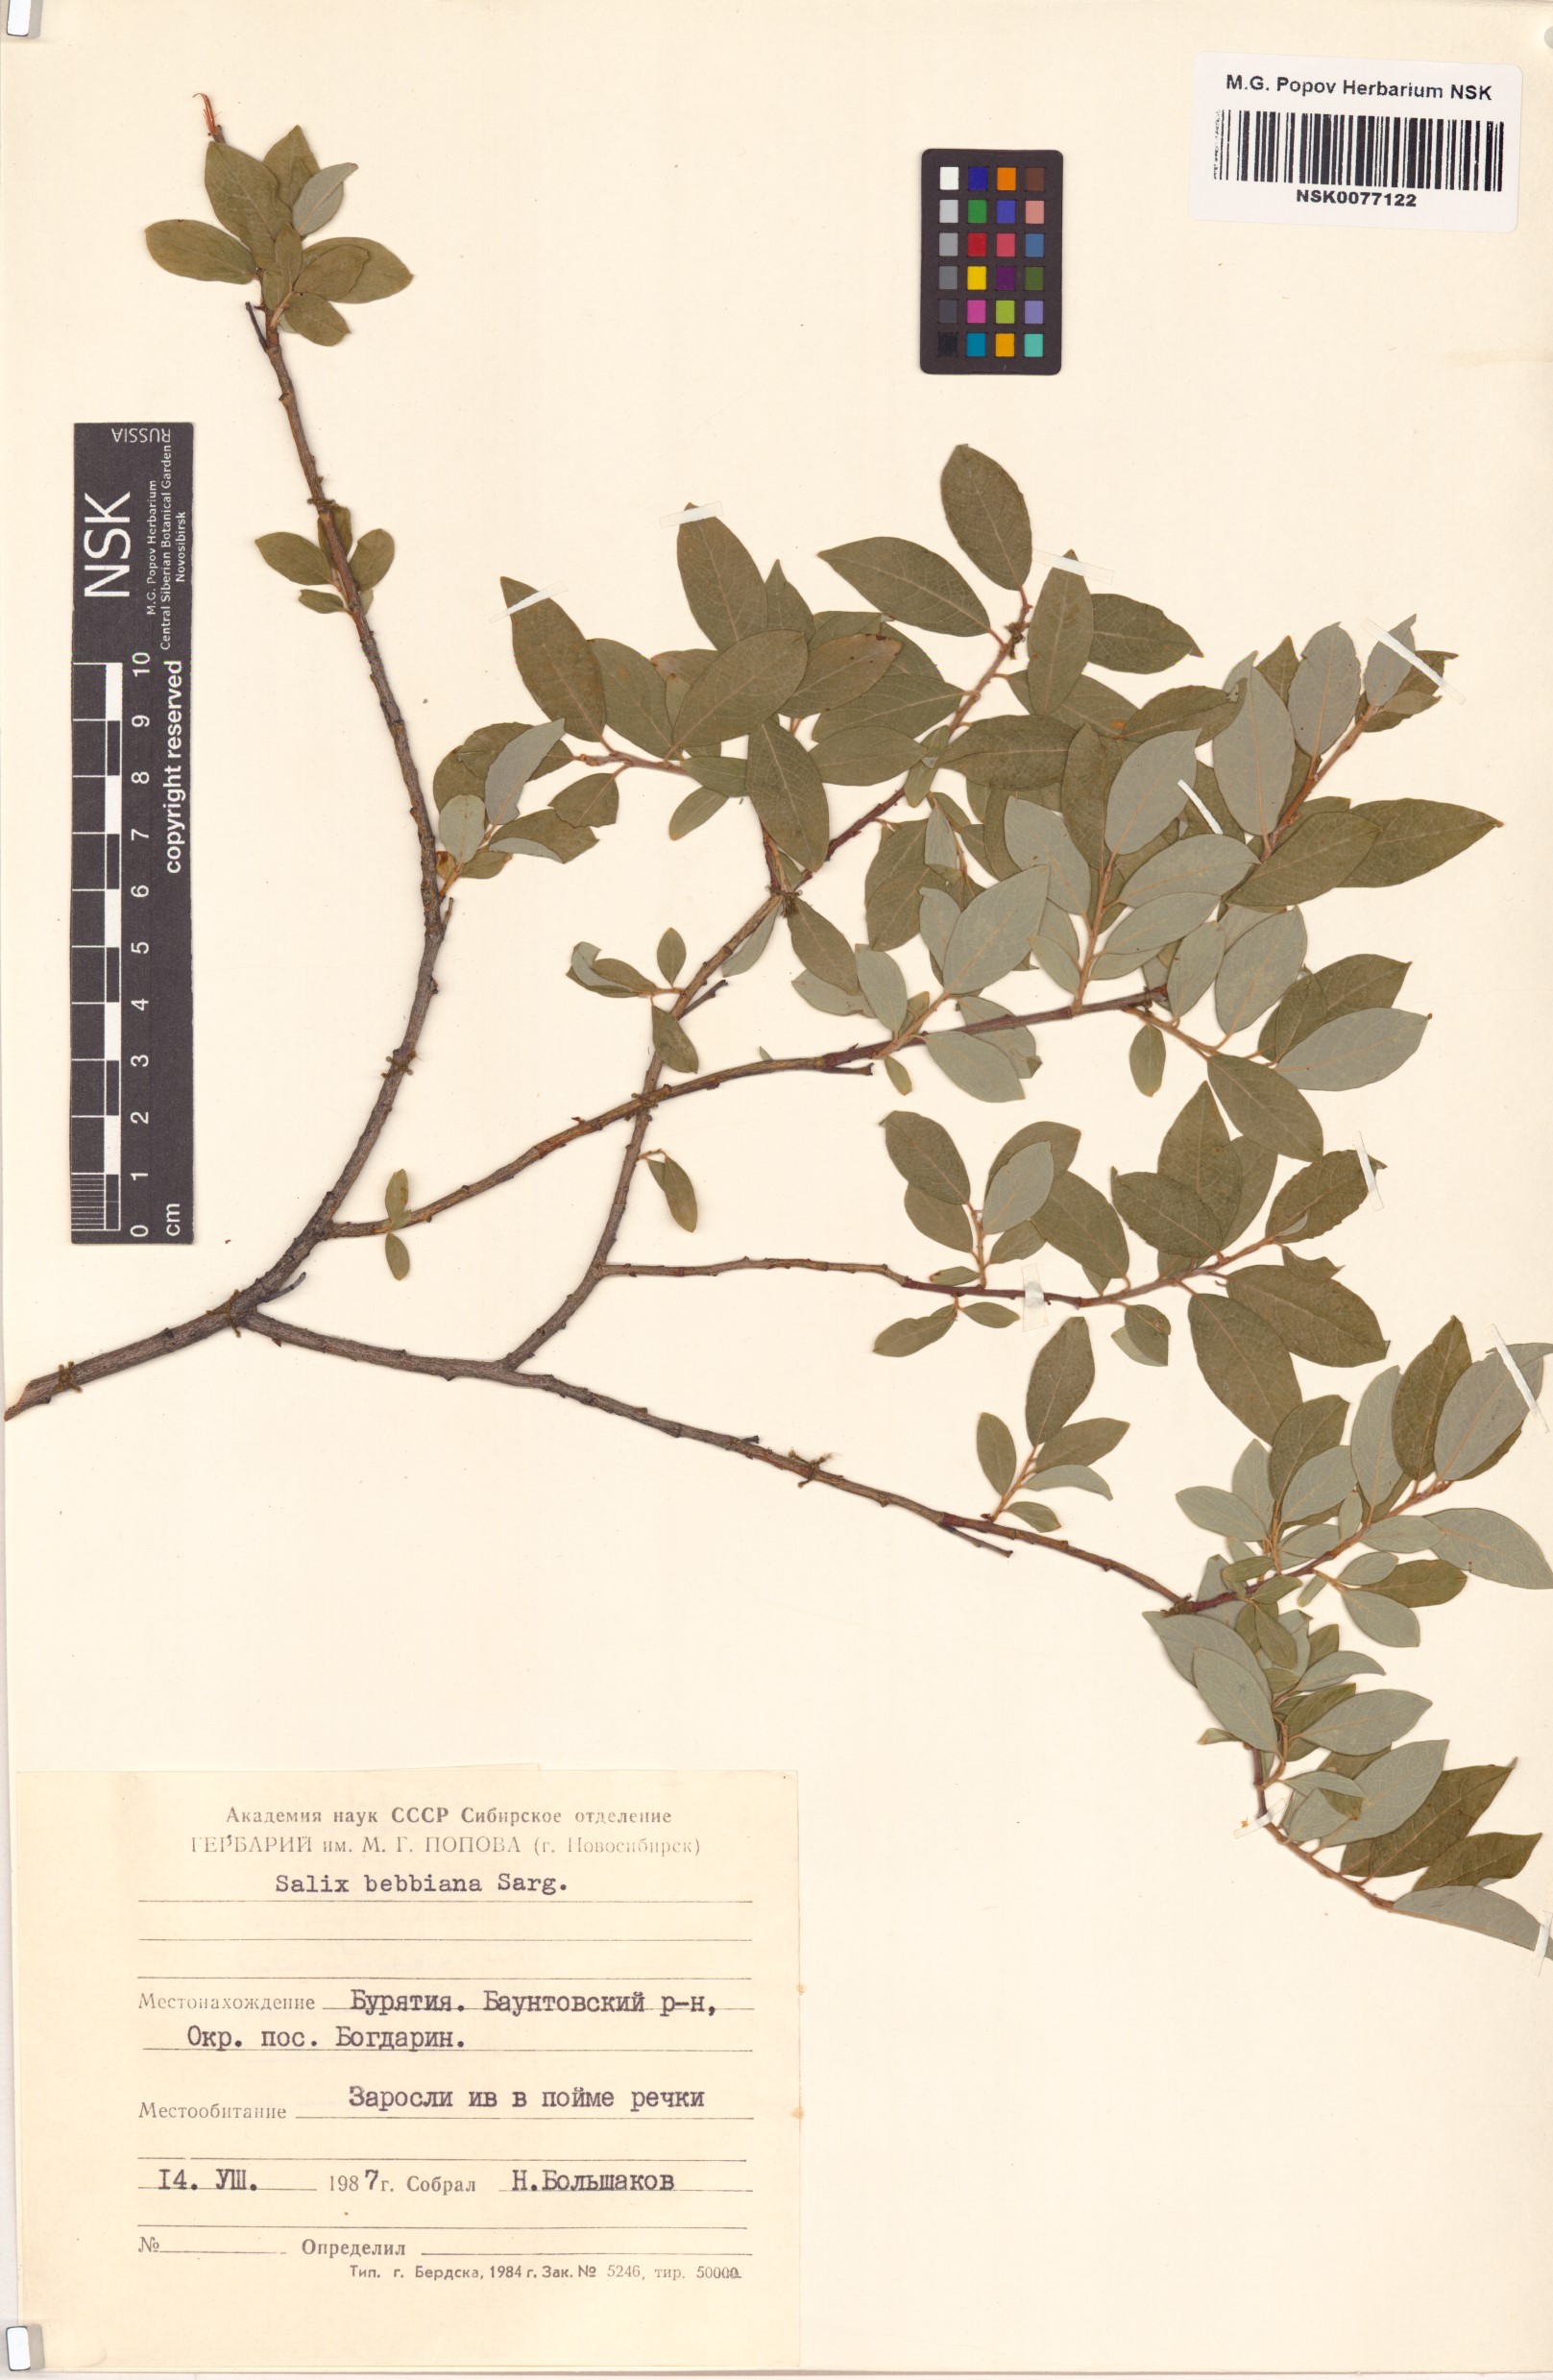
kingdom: Plantae
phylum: Tracheophyta
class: Magnoliopsida
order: Malpighiales
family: Salicaceae
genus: Salix
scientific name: Salix bebbiana
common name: Bebb's willow
